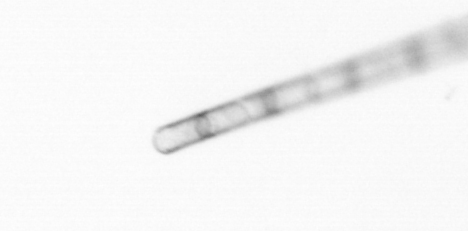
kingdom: Chromista
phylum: Ochrophyta
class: Bacillariophyceae
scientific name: Bacillariophyceae
